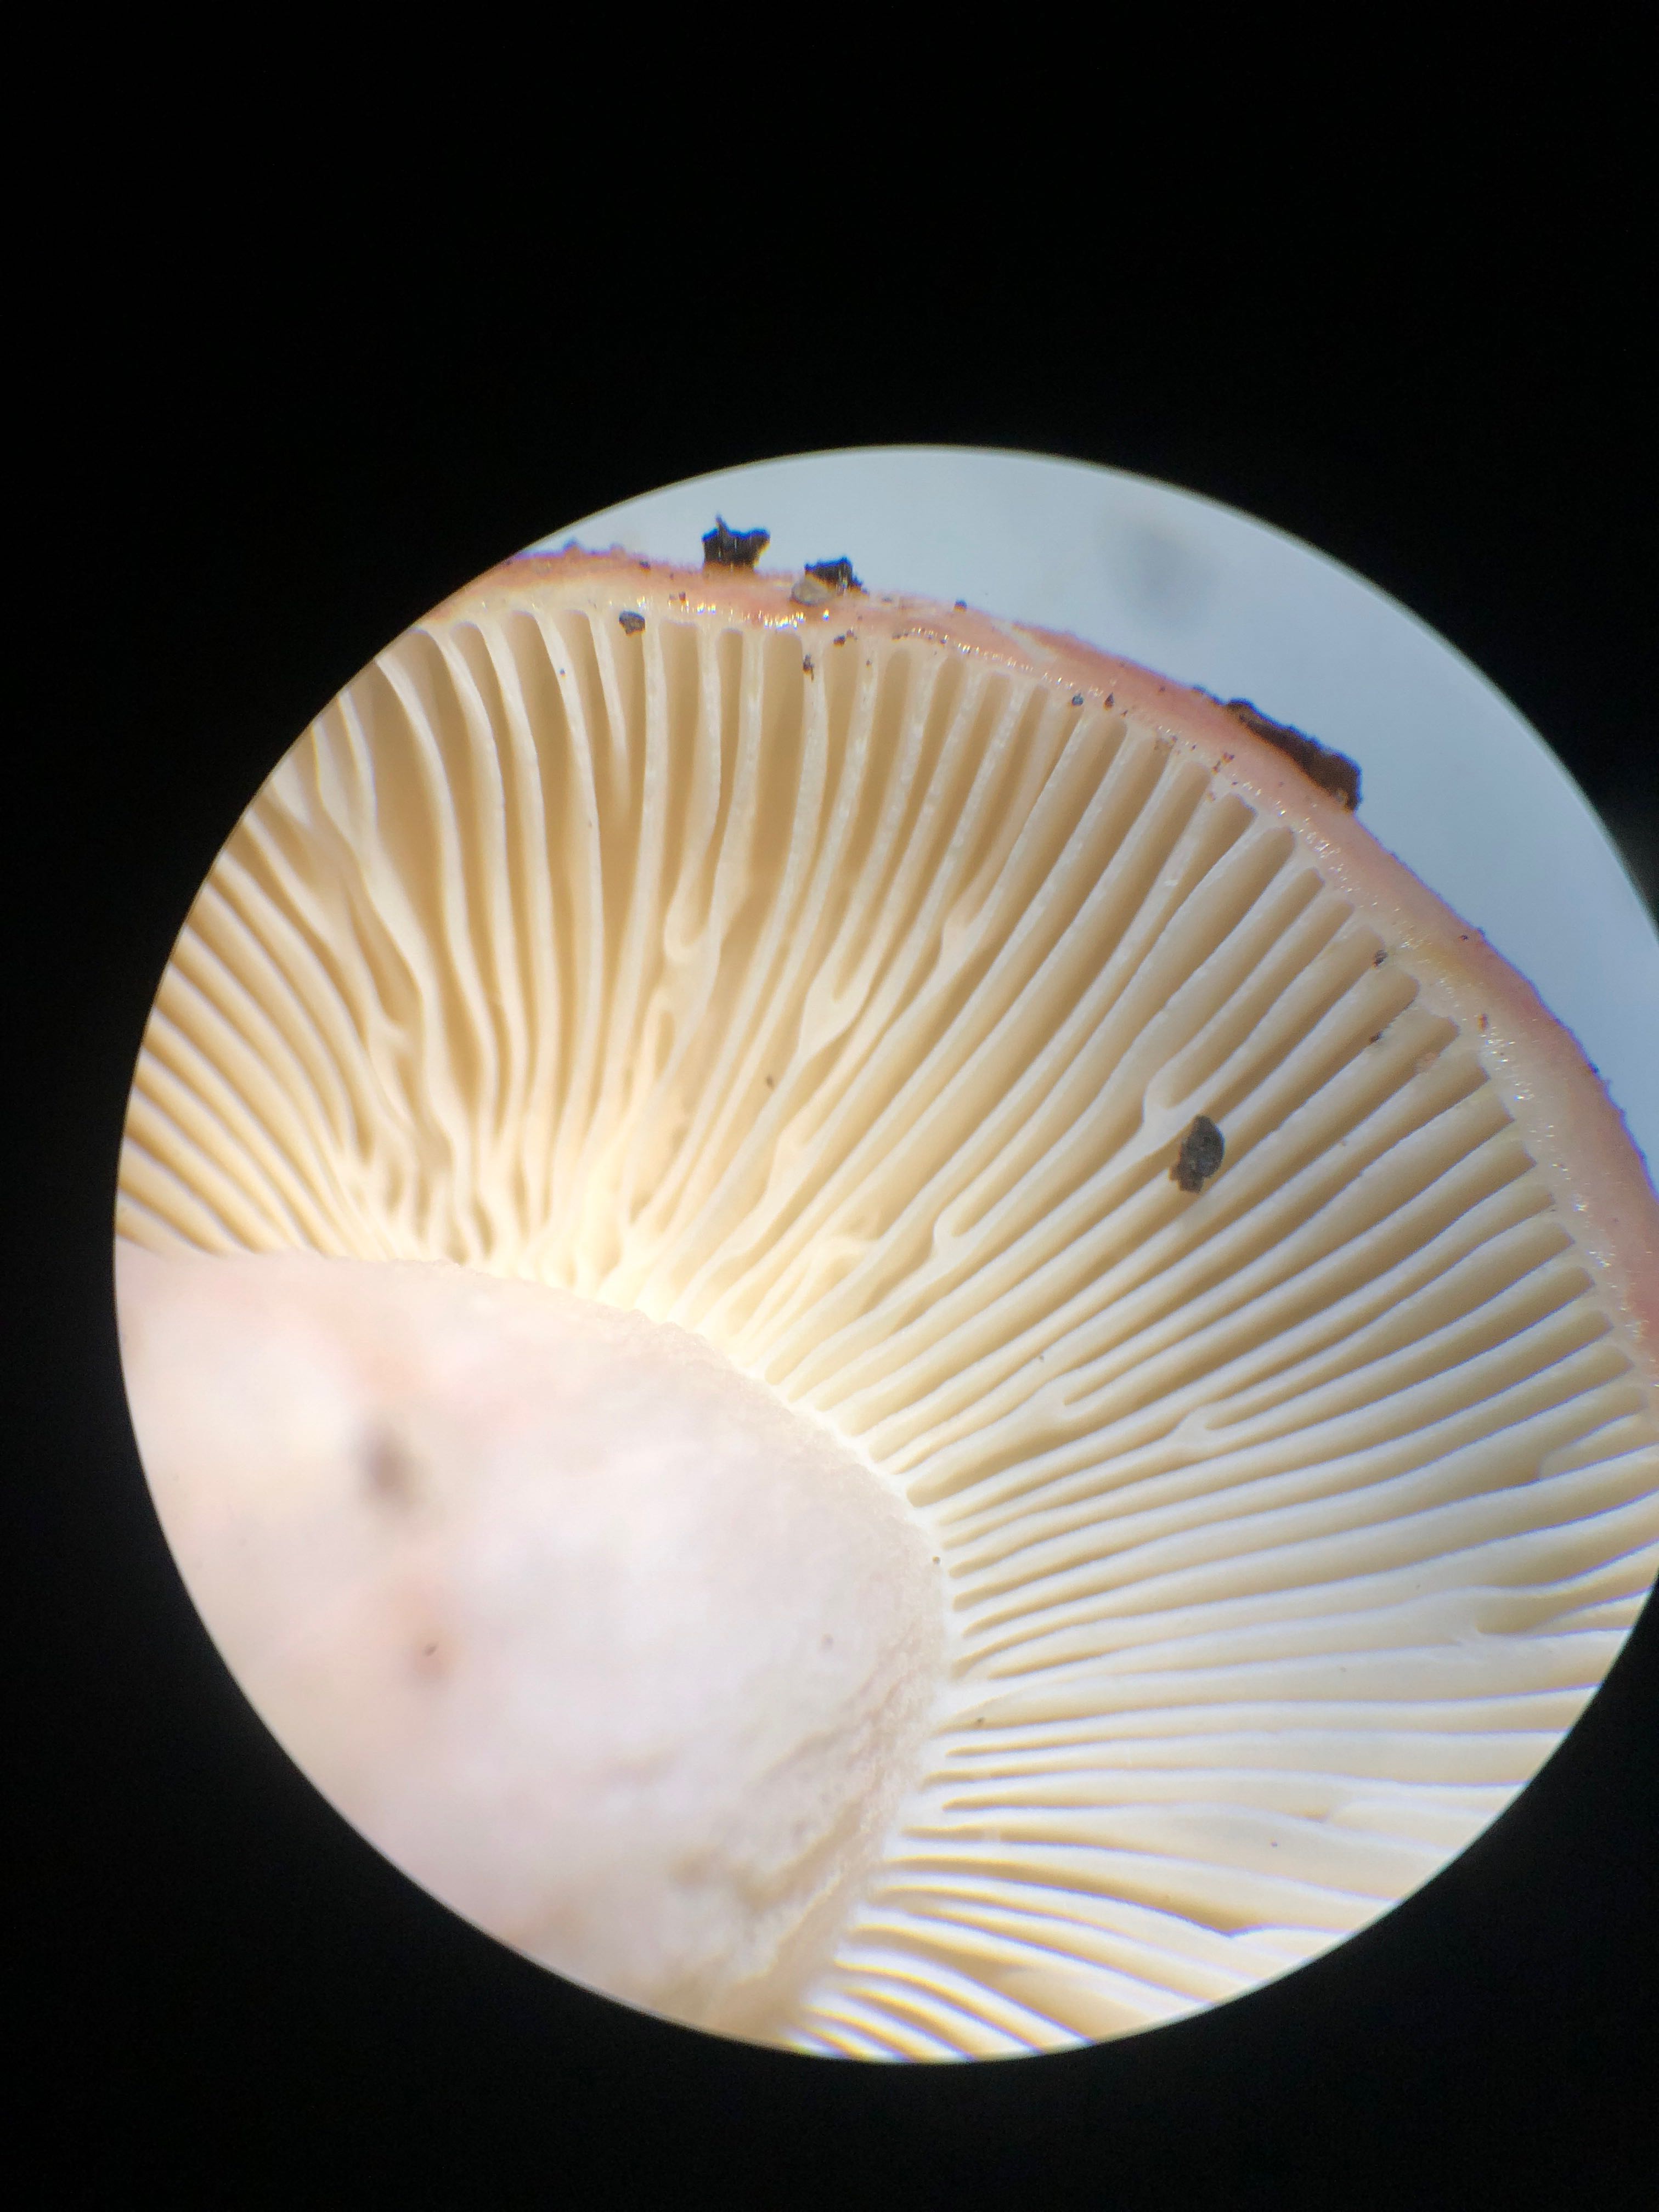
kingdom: Fungi
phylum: Basidiomycota
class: Agaricomycetes
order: Russulales
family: Russulaceae
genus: Russula
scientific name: Russula
